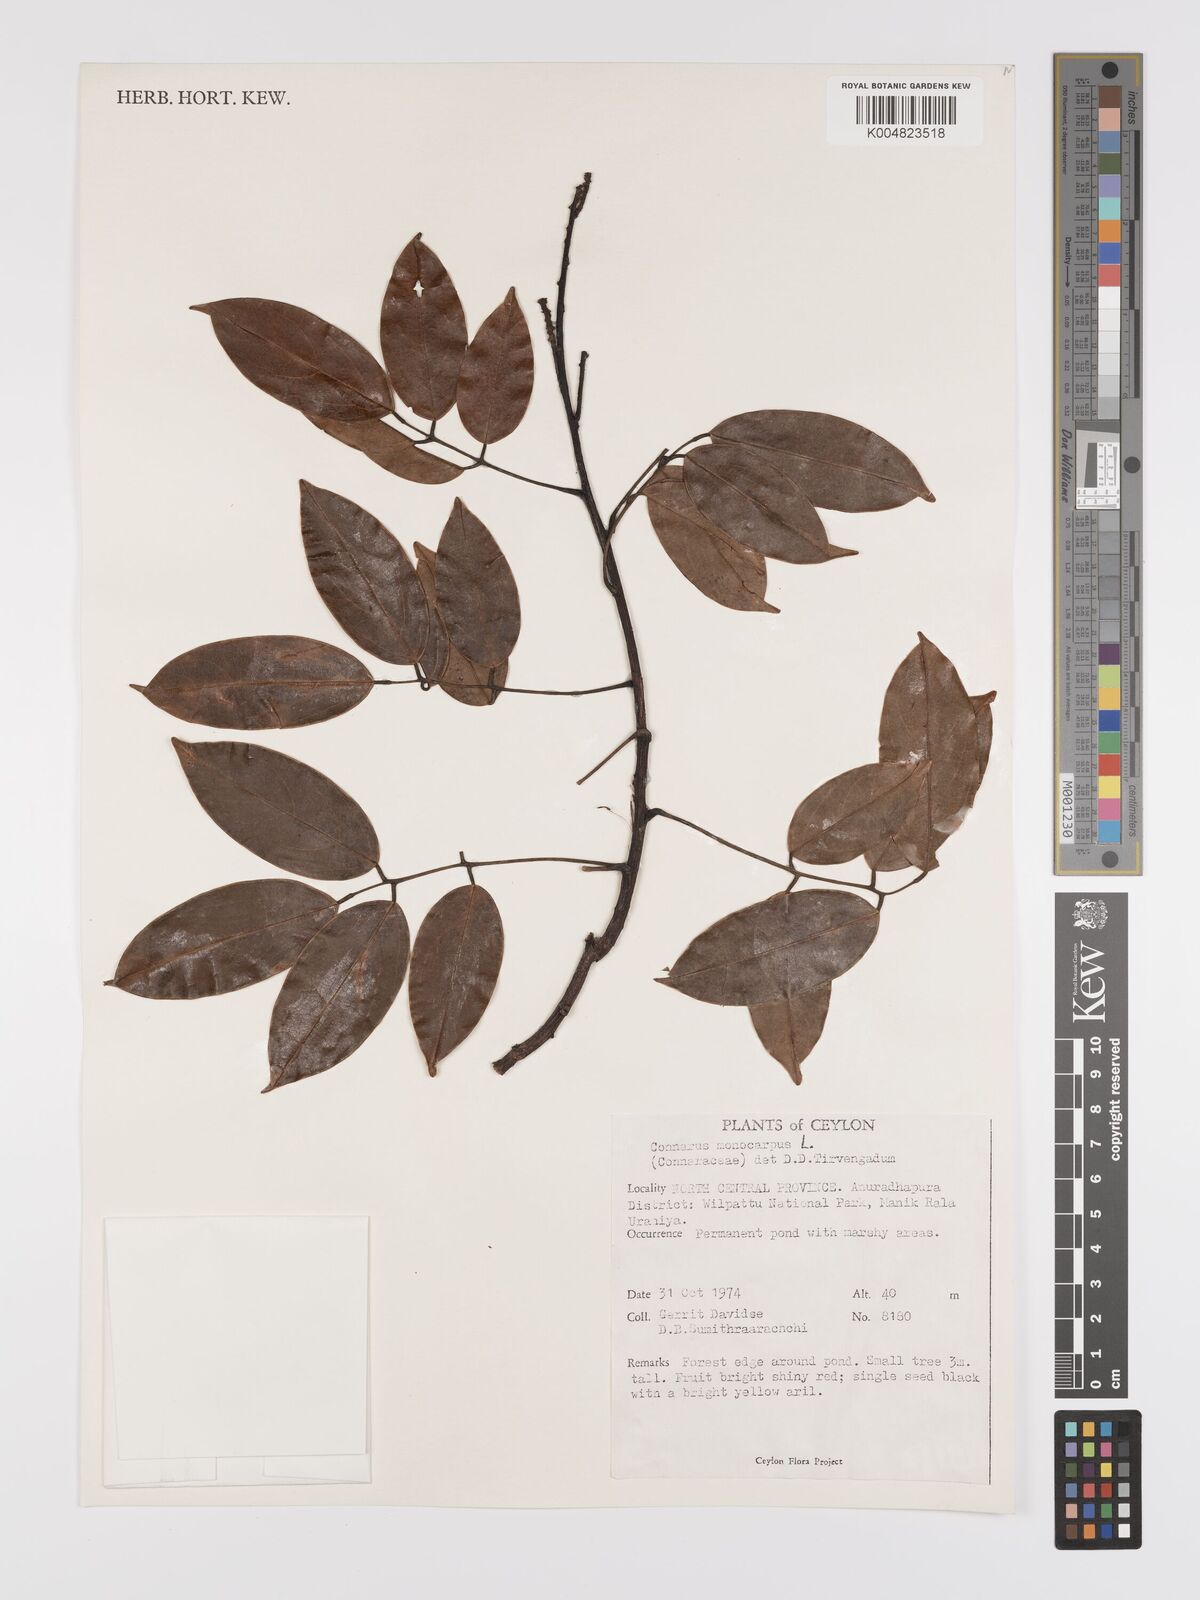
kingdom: Plantae
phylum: Tracheophyta
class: Magnoliopsida
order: Oxalidales
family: Connaraceae
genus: Connarus
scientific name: Connarus semidecandrus
